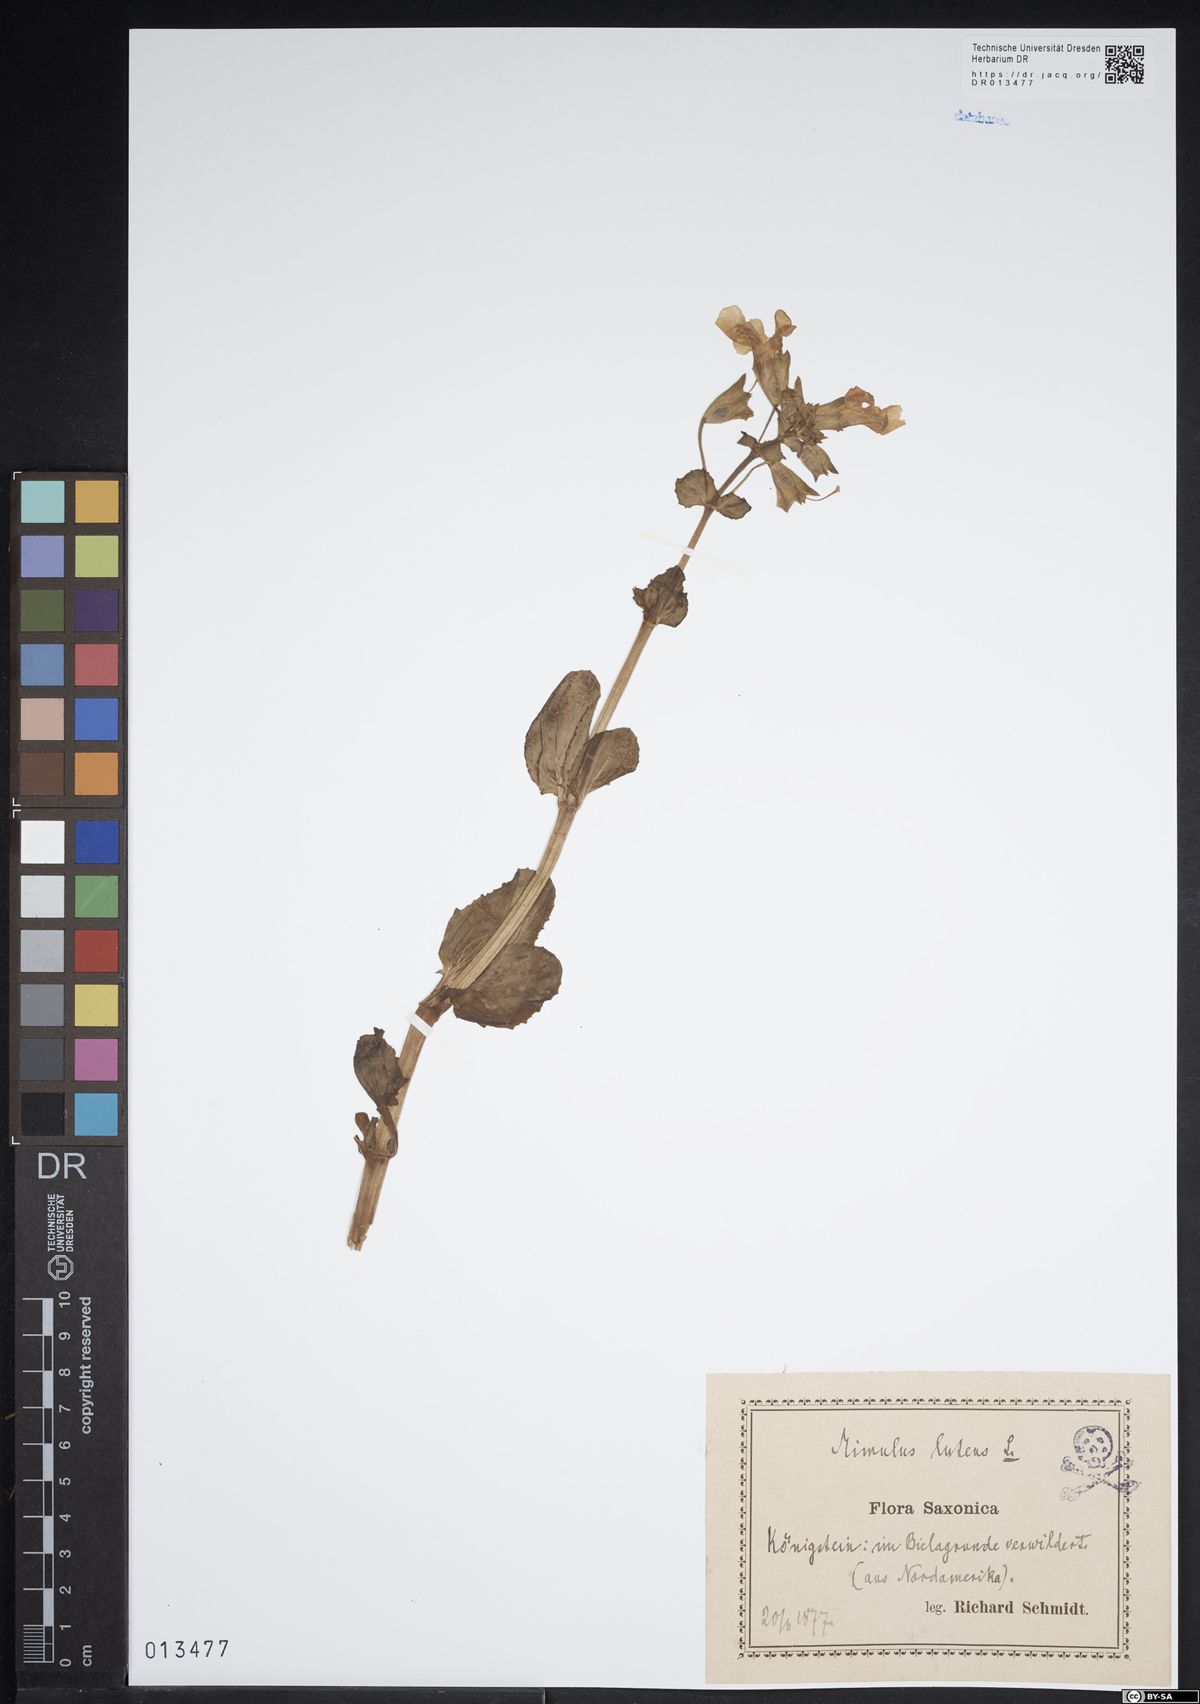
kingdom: Plantae
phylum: Tracheophyta
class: Magnoliopsida
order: Lamiales
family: Phrymaceae
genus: Erythranthe
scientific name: Erythranthe guttata
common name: Monkeyflower
